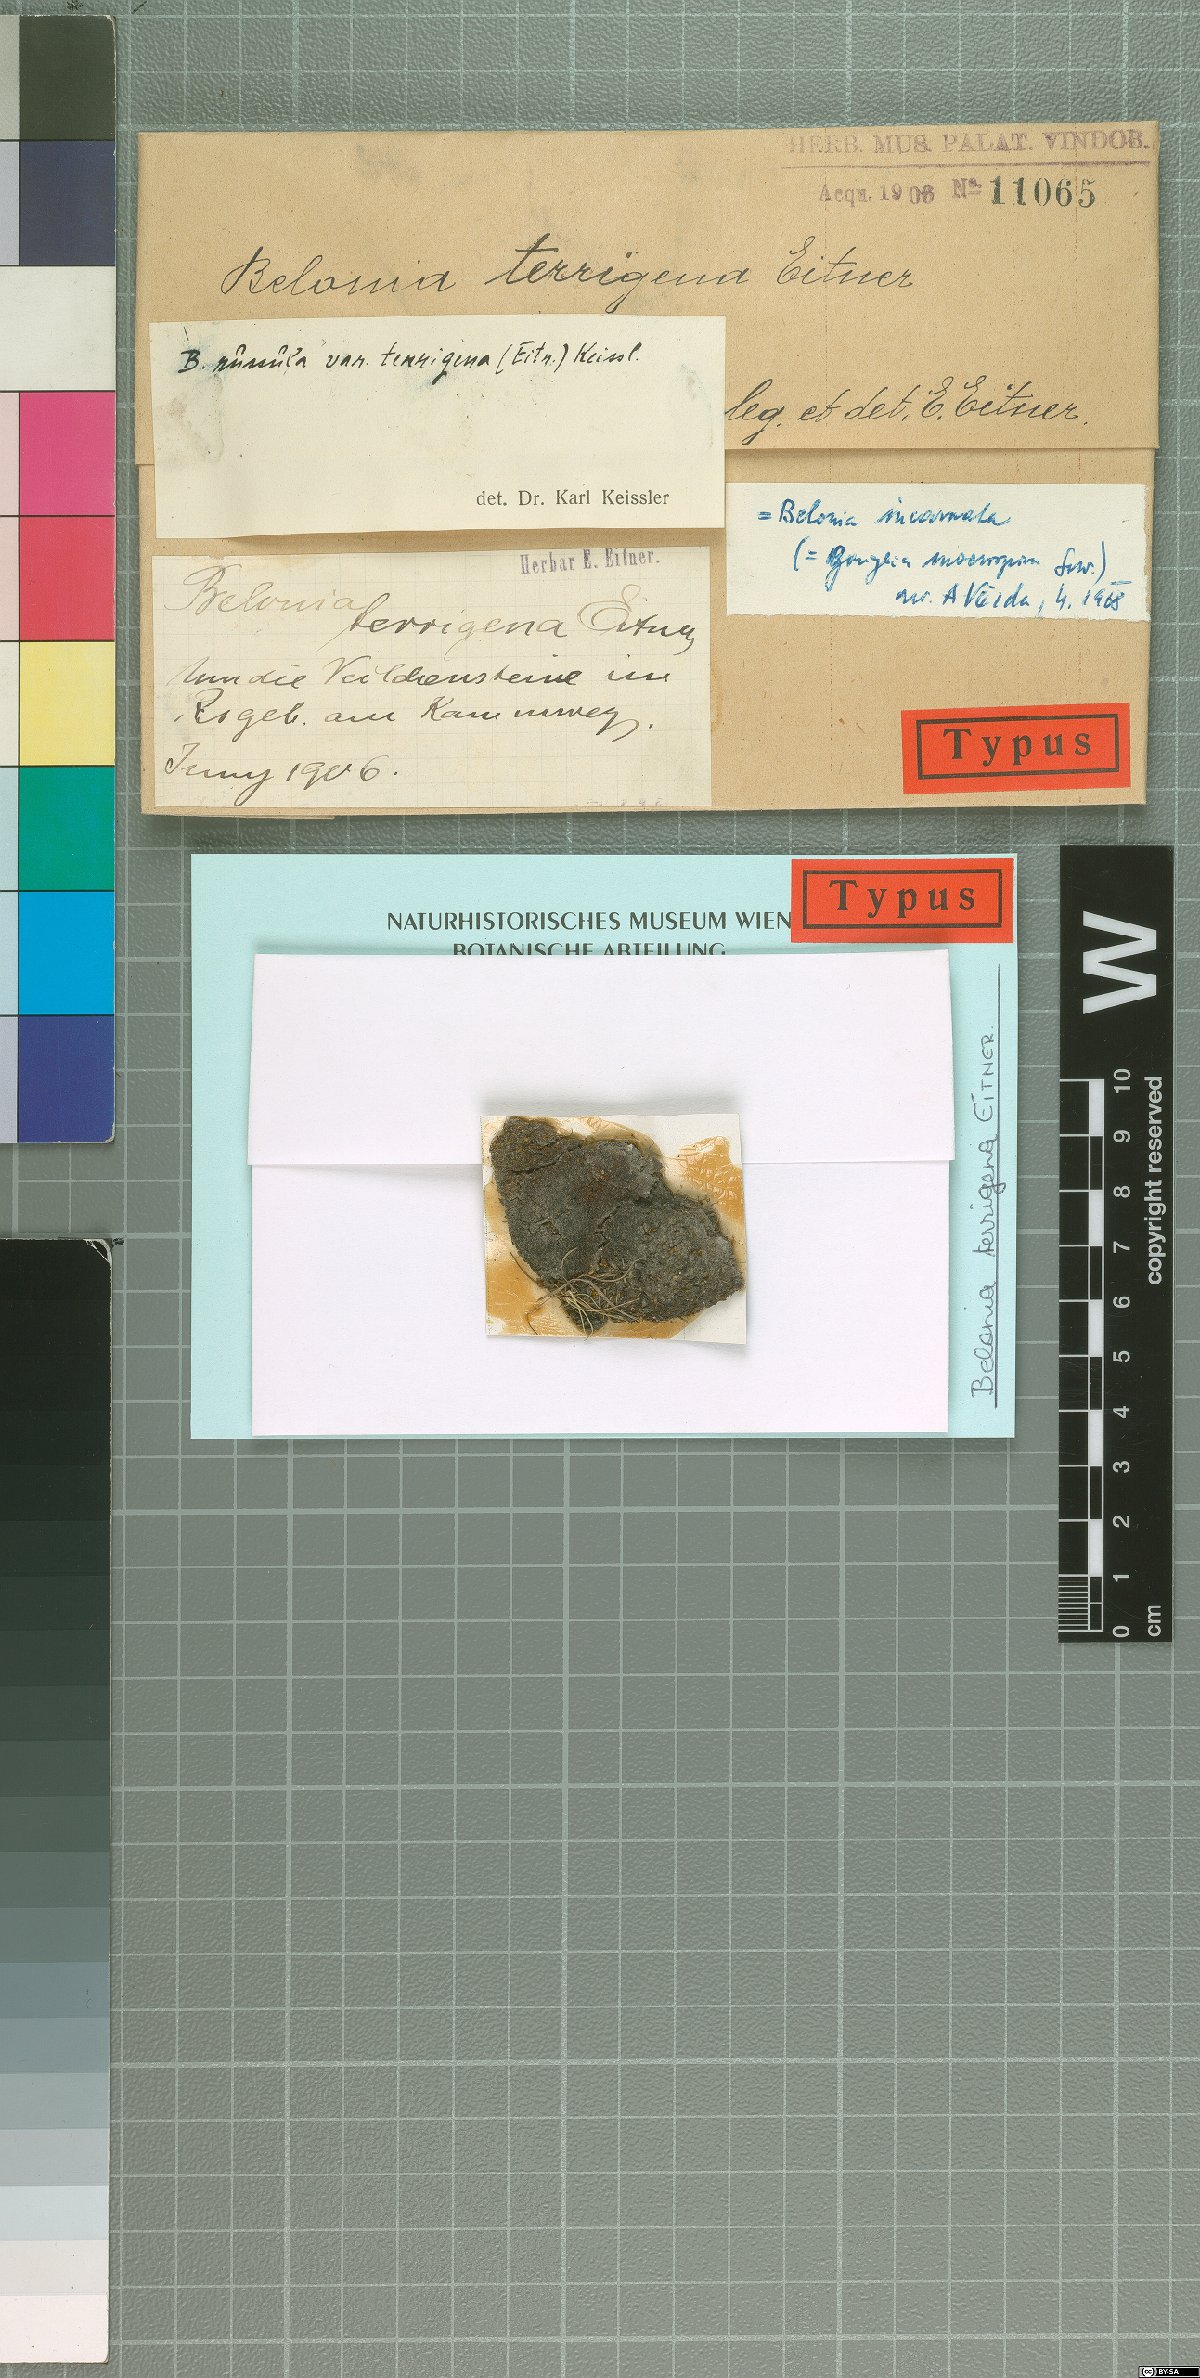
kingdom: Fungi
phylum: Ascomycota
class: Lecanoromycetes
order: Gyalectales
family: Gyalectaceae
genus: Gyalecta
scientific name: Gyalecta incarnata
